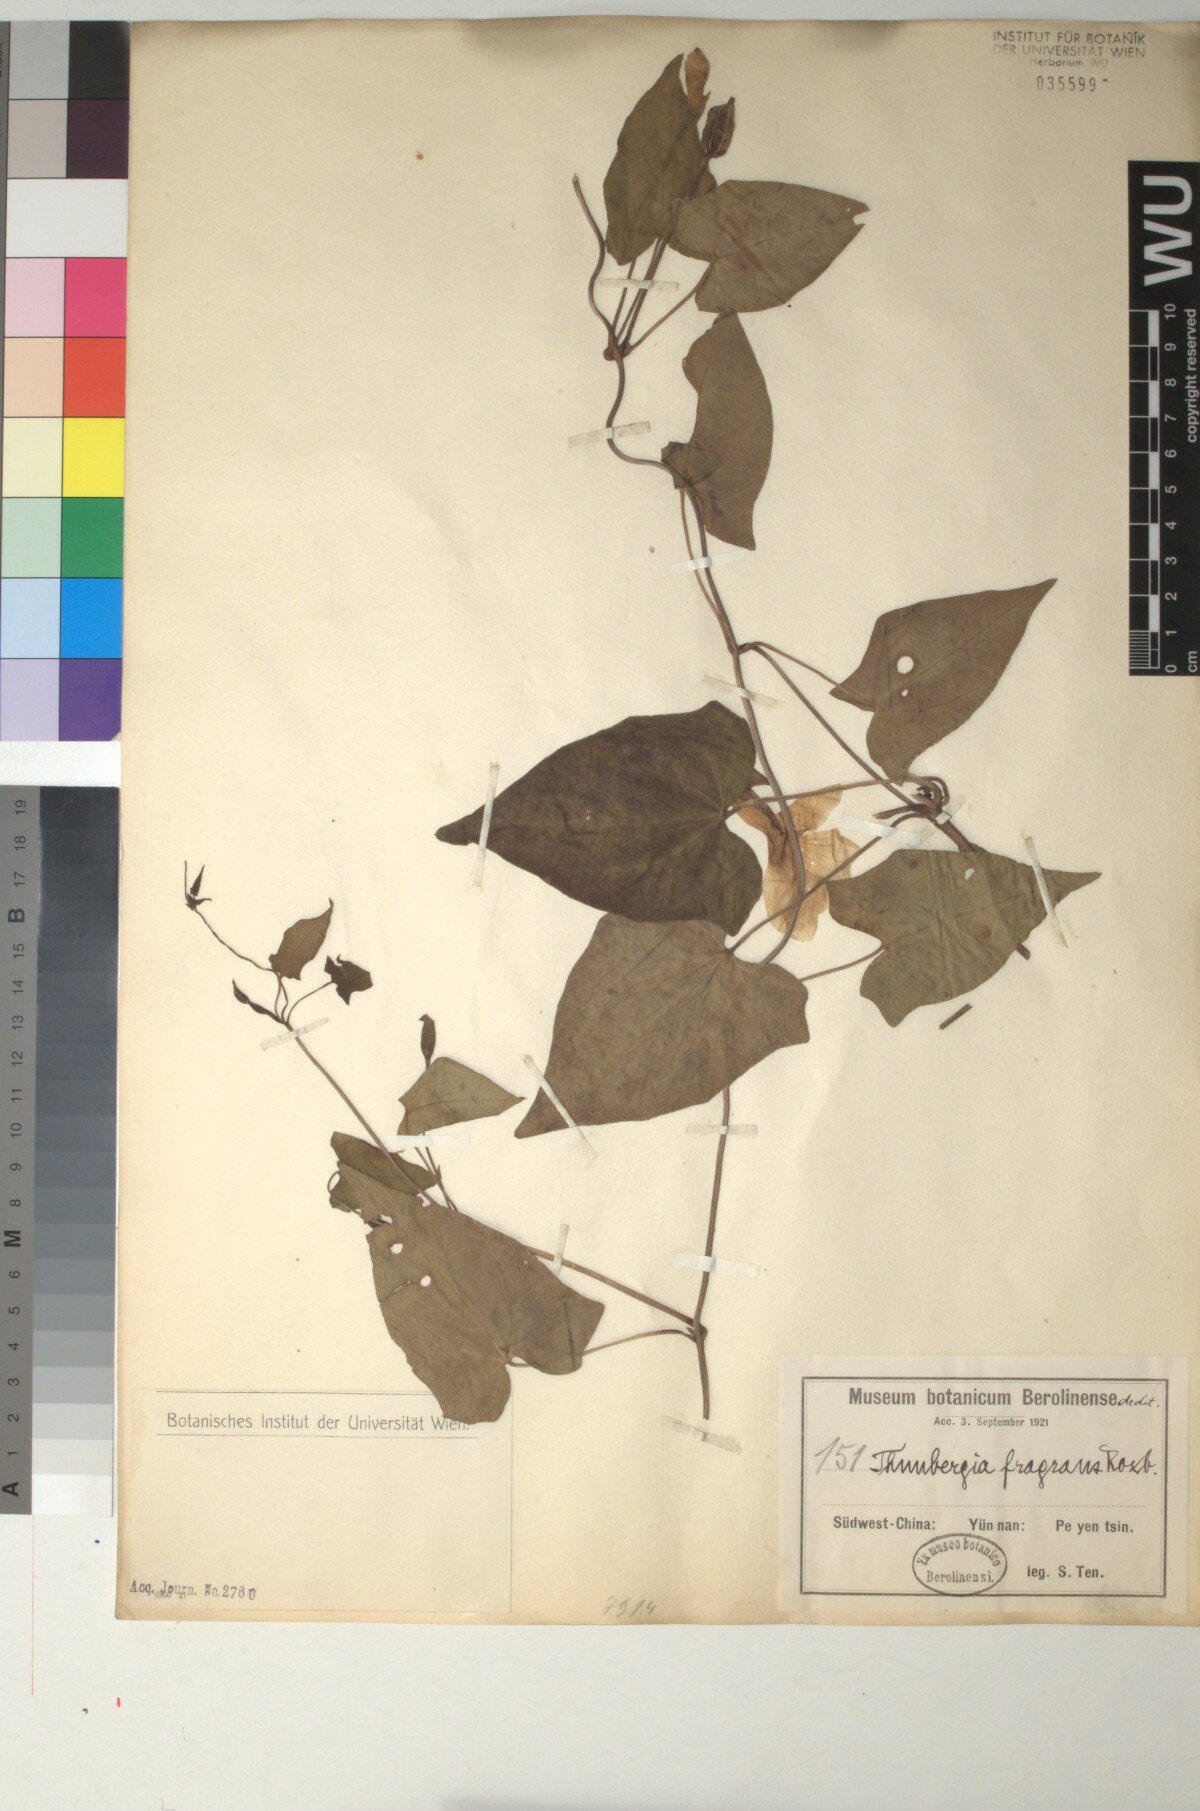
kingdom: Plantae
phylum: Tracheophyta
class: Magnoliopsida
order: Lamiales
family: Acanthaceae
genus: Thunbergia
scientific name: Thunbergia fragrans
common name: Whitelady
